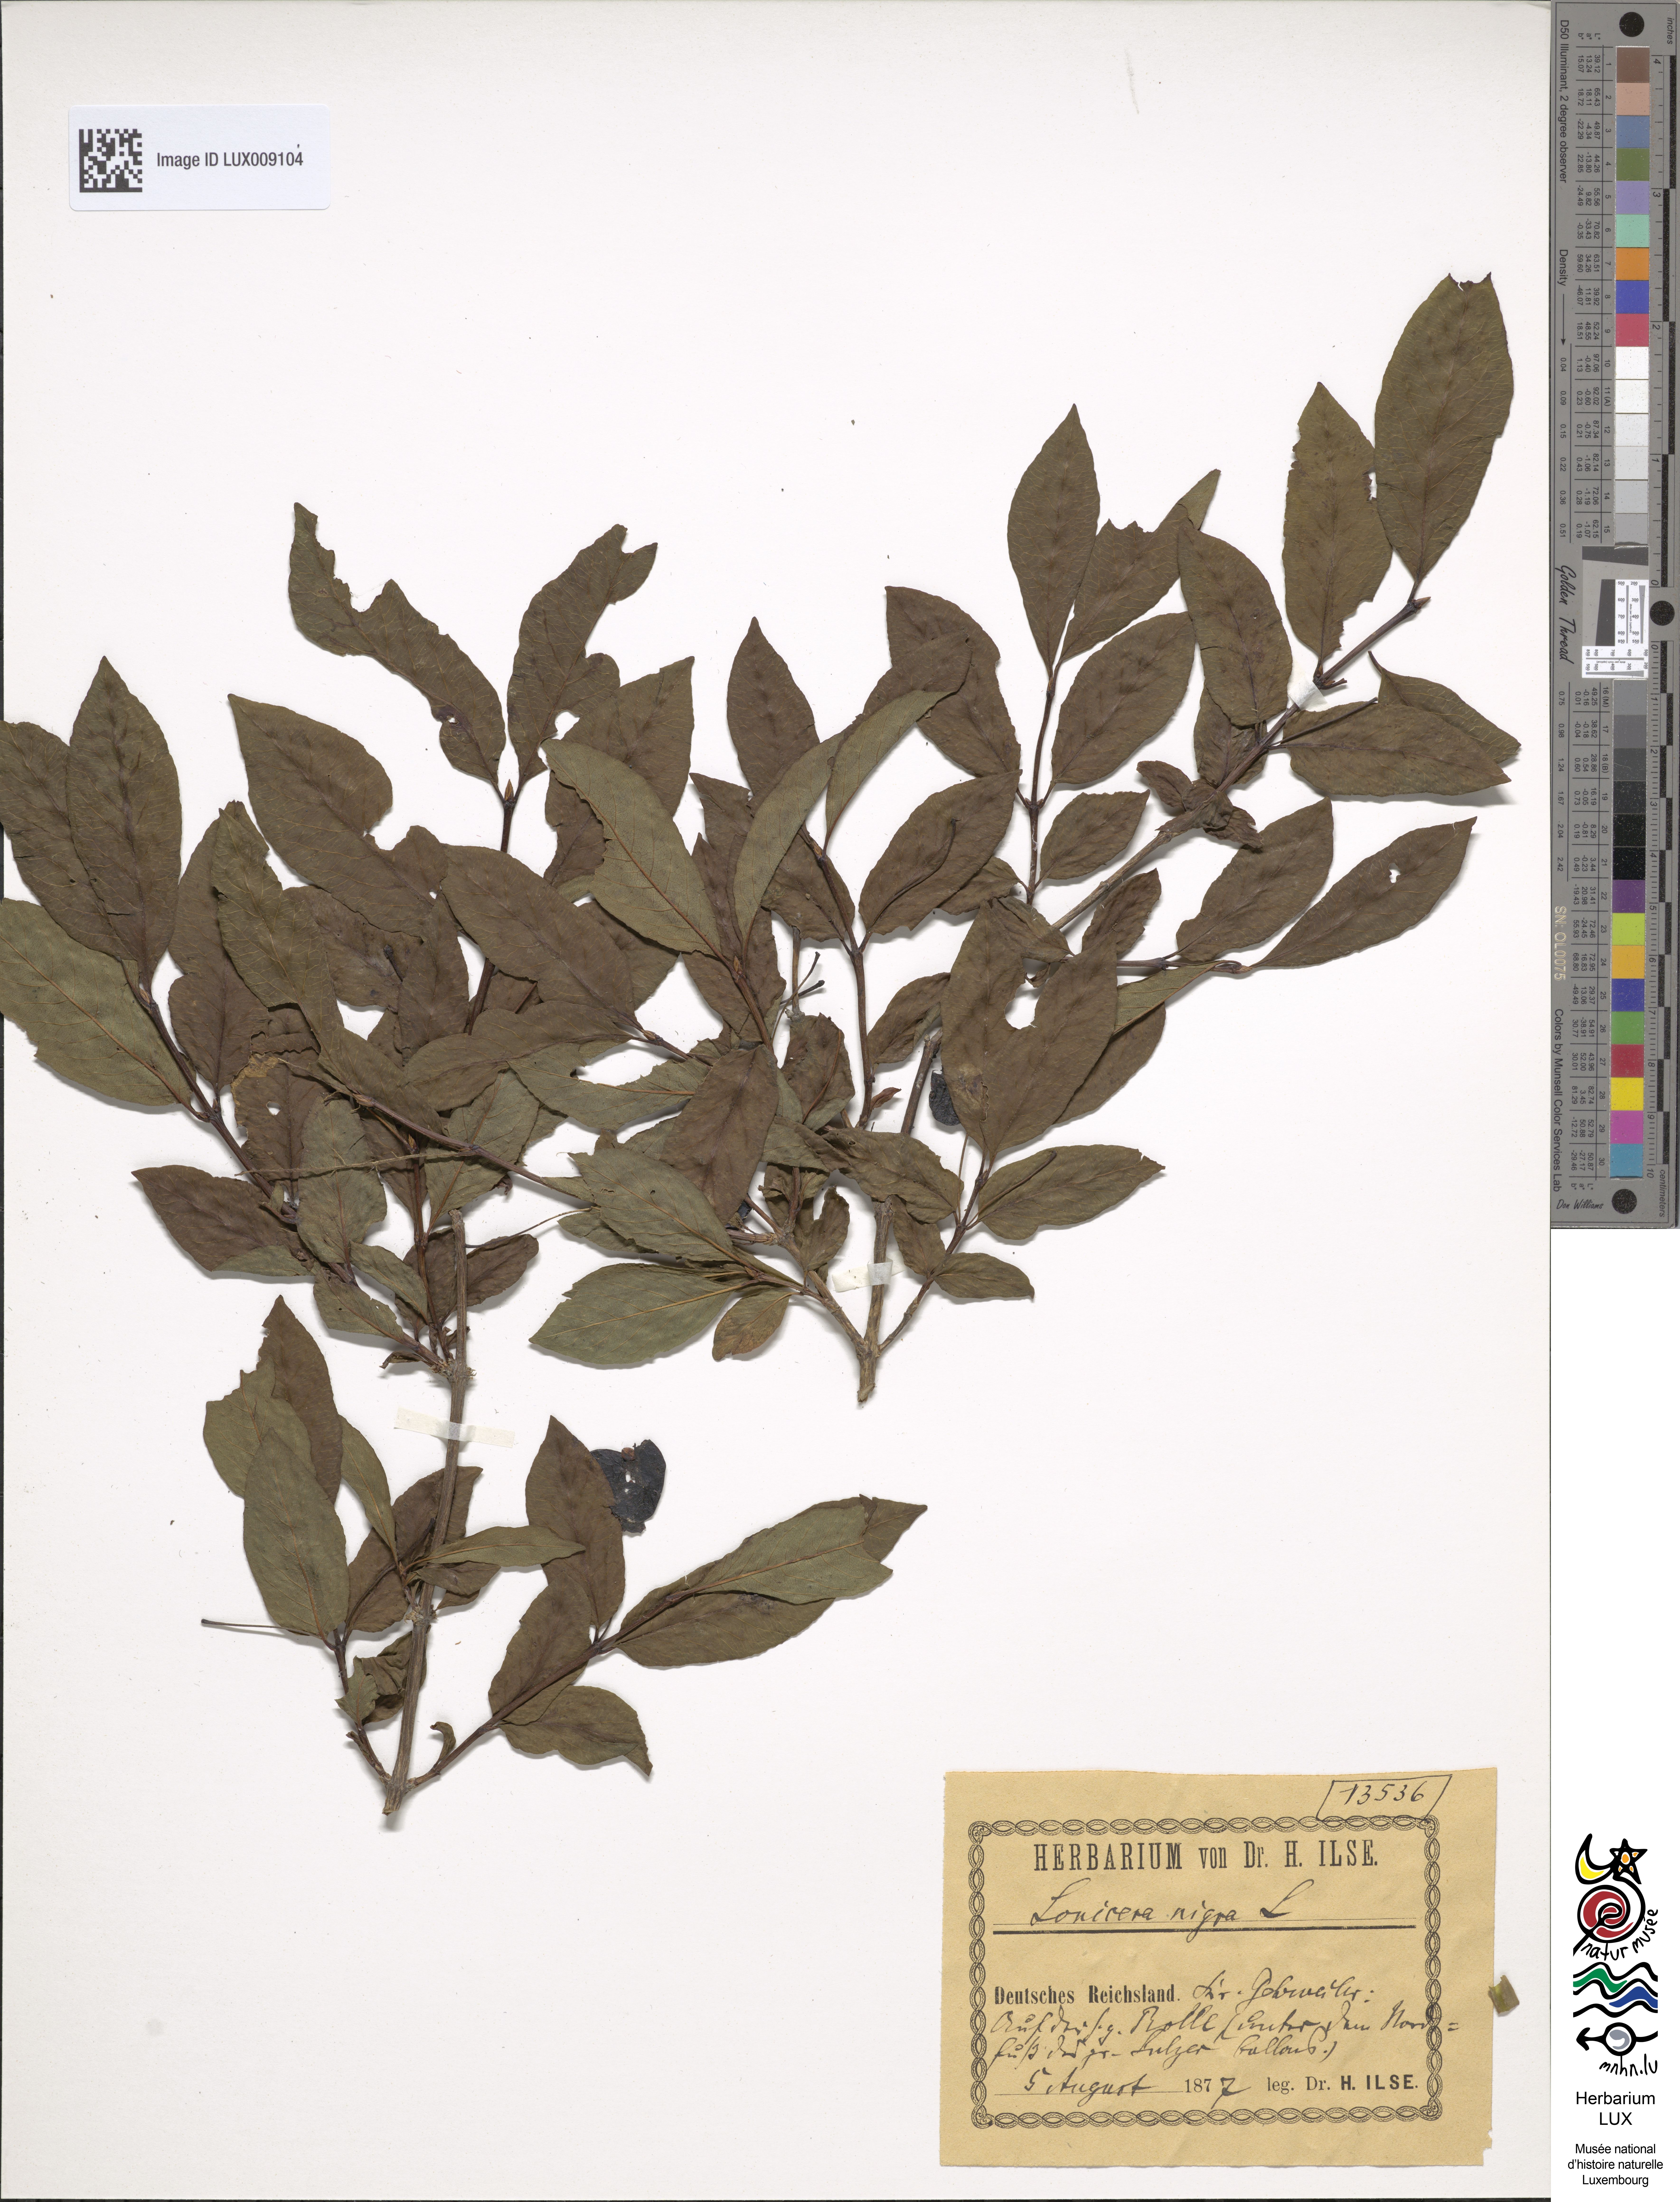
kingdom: Plantae
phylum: Tracheophyta
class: Magnoliopsida
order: Dipsacales
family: Caprifoliaceae
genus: Lonicera
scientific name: Lonicera nigra
